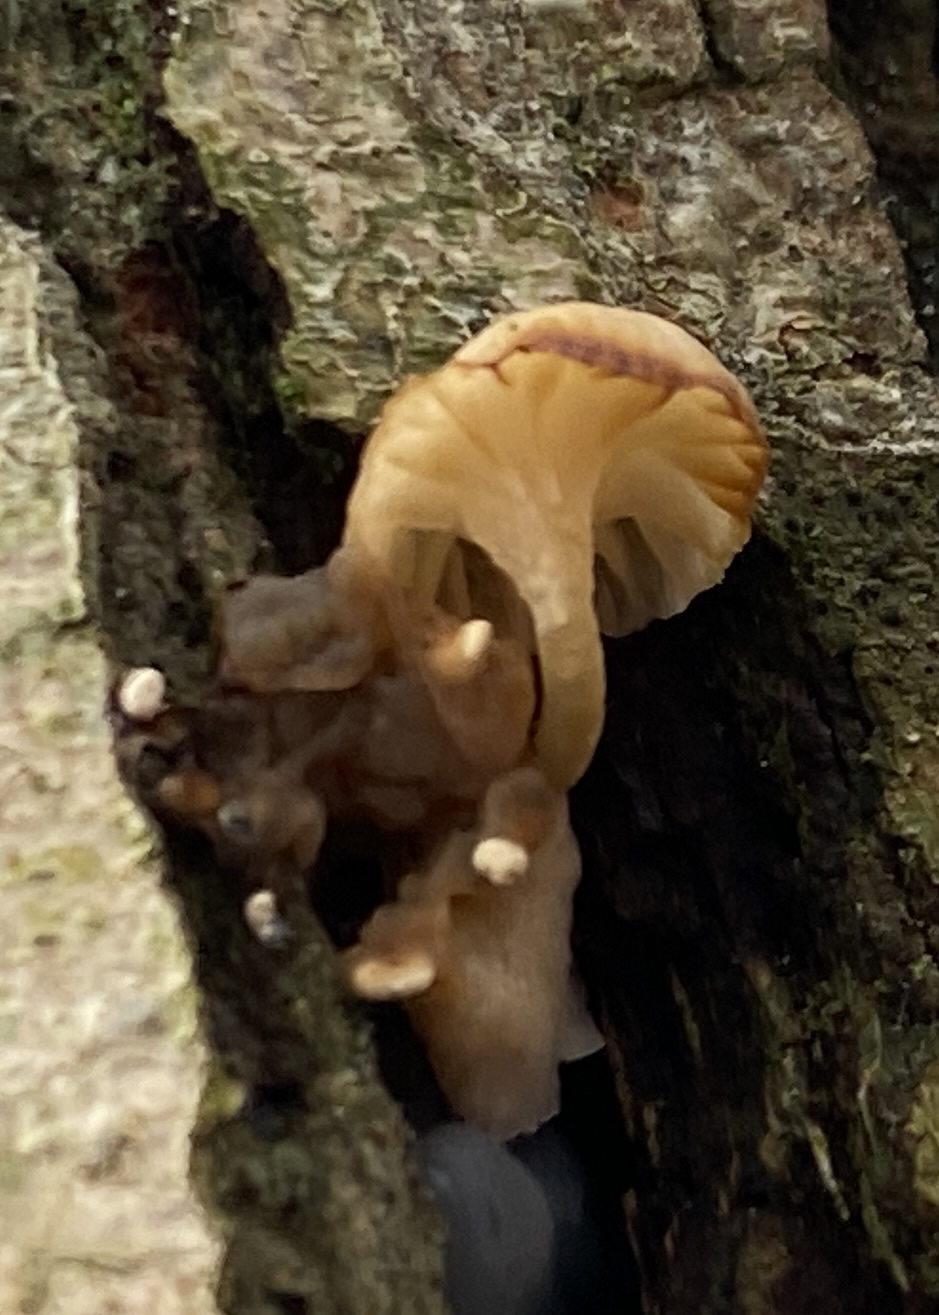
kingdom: Fungi
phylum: Basidiomycota
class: Agaricomycetes
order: Agaricales
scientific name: Agaricales
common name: champignonordenen
